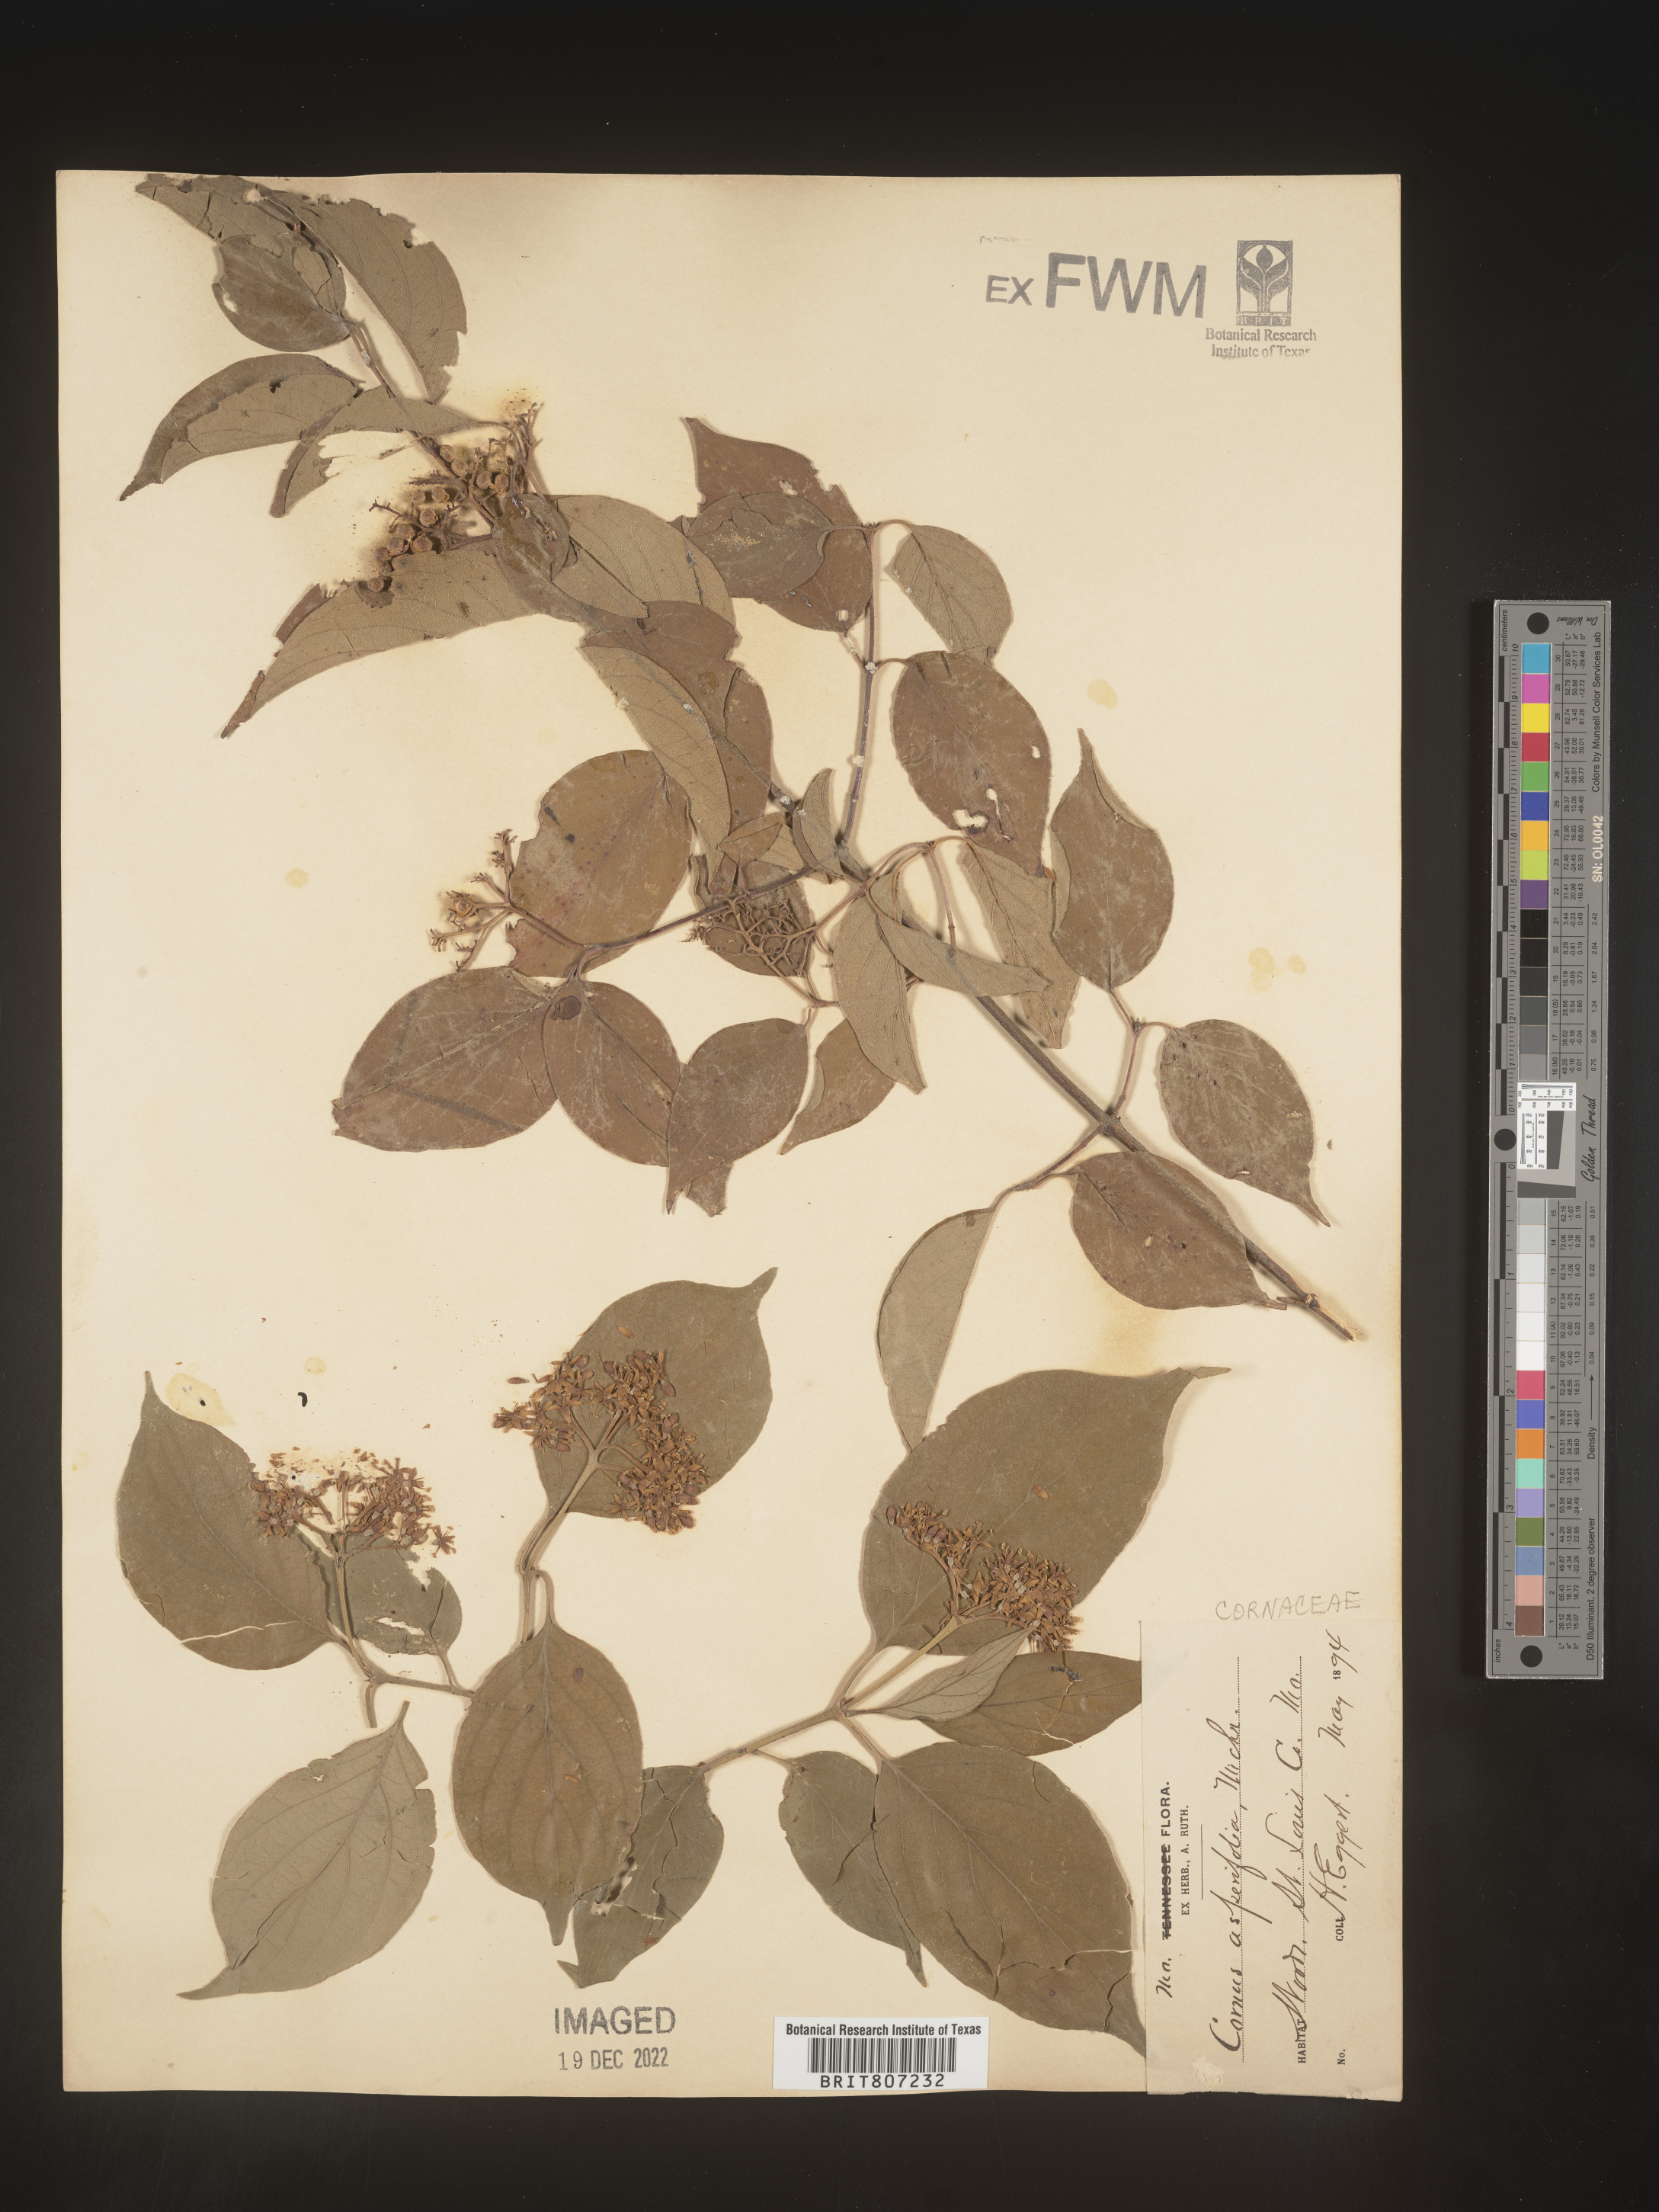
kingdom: Plantae
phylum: Tracheophyta
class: Magnoliopsida
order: Cornales
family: Cornaceae
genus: Cornus
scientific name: Cornus asperifolia
